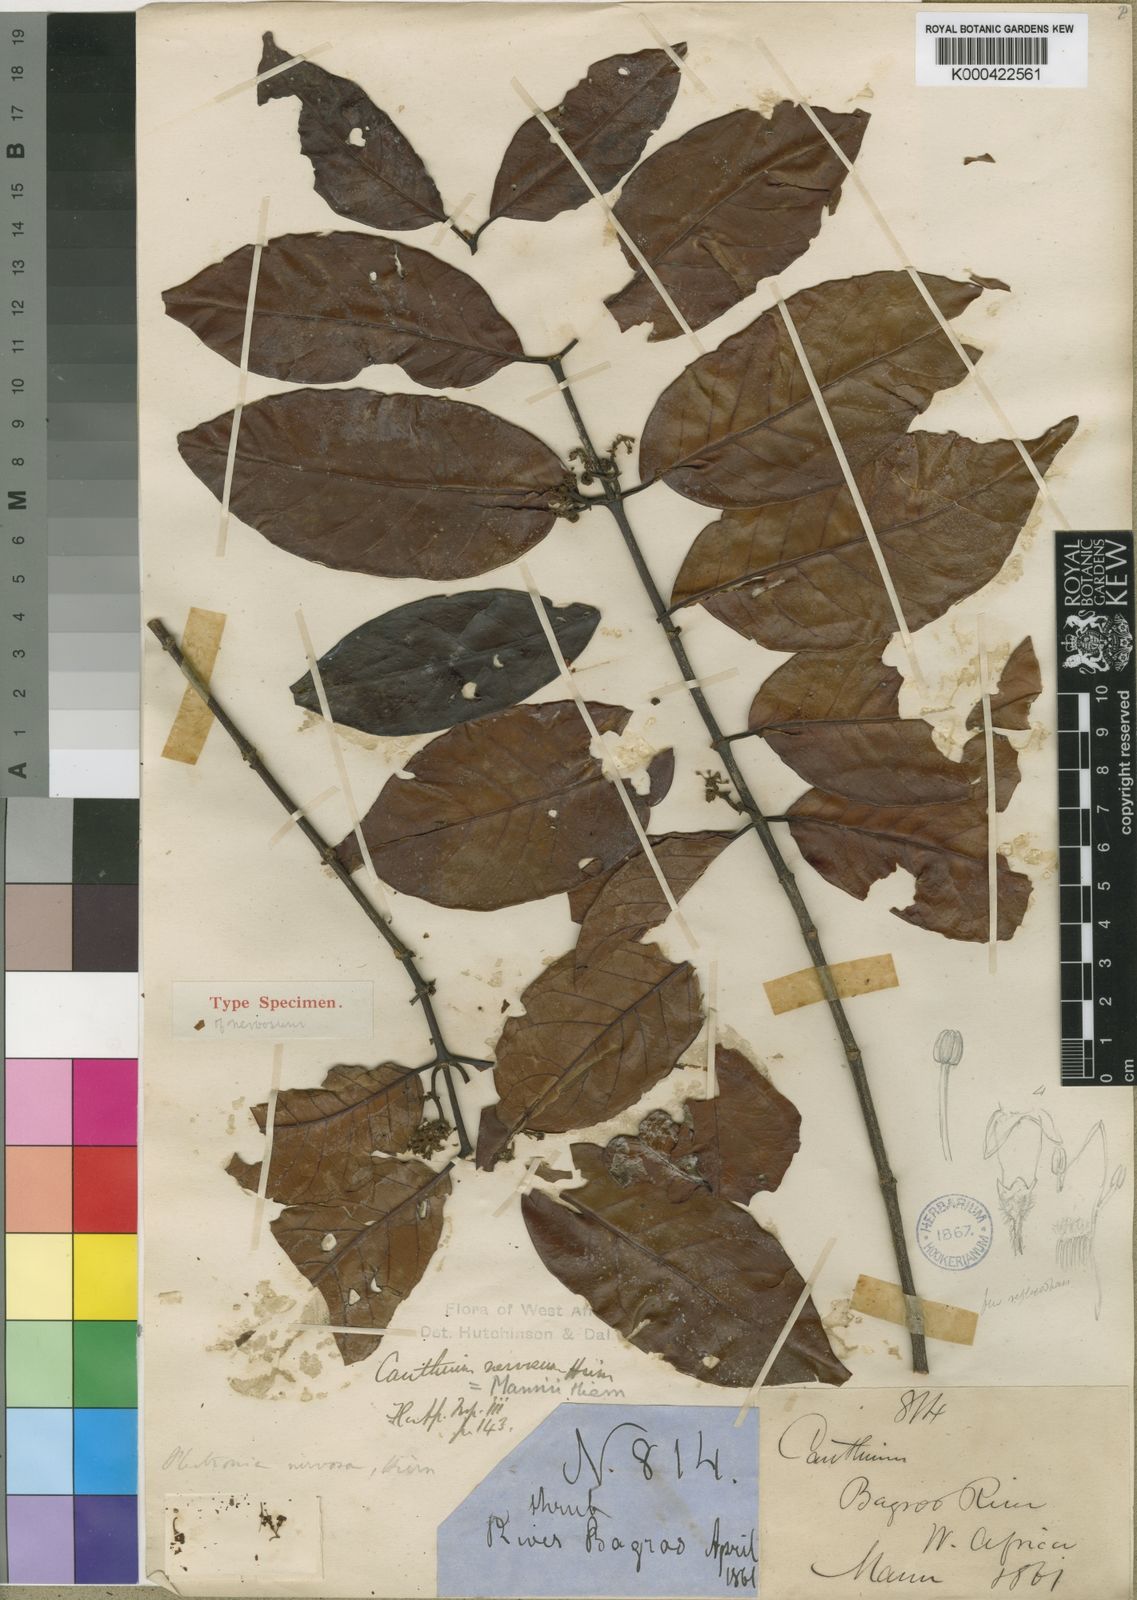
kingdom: Plantae
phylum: Tracheophyta
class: Magnoliopsida
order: Gentianales
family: Rubiaceae
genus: Keetia
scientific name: Keetia
